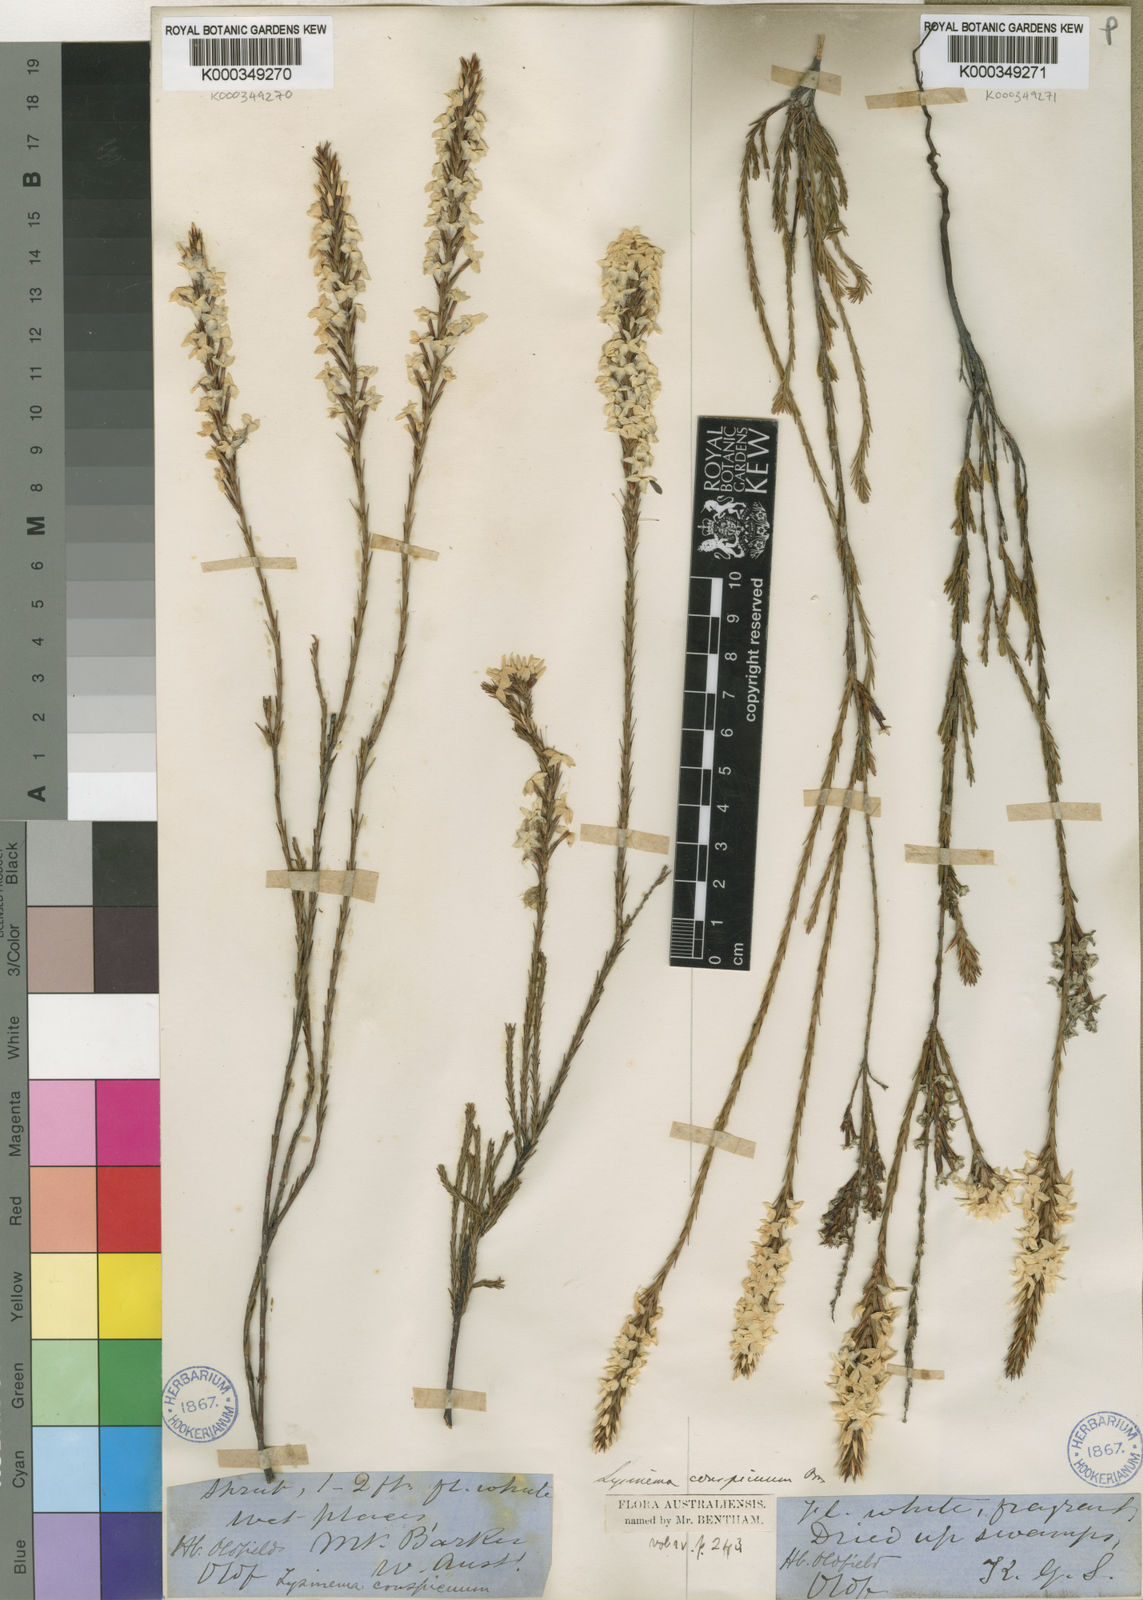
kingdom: Plantae
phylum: Tracheophyta
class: Magnoliopsida
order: Ericales
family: Ericaceae
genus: Lysinema
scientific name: Lysinema conspicuum
